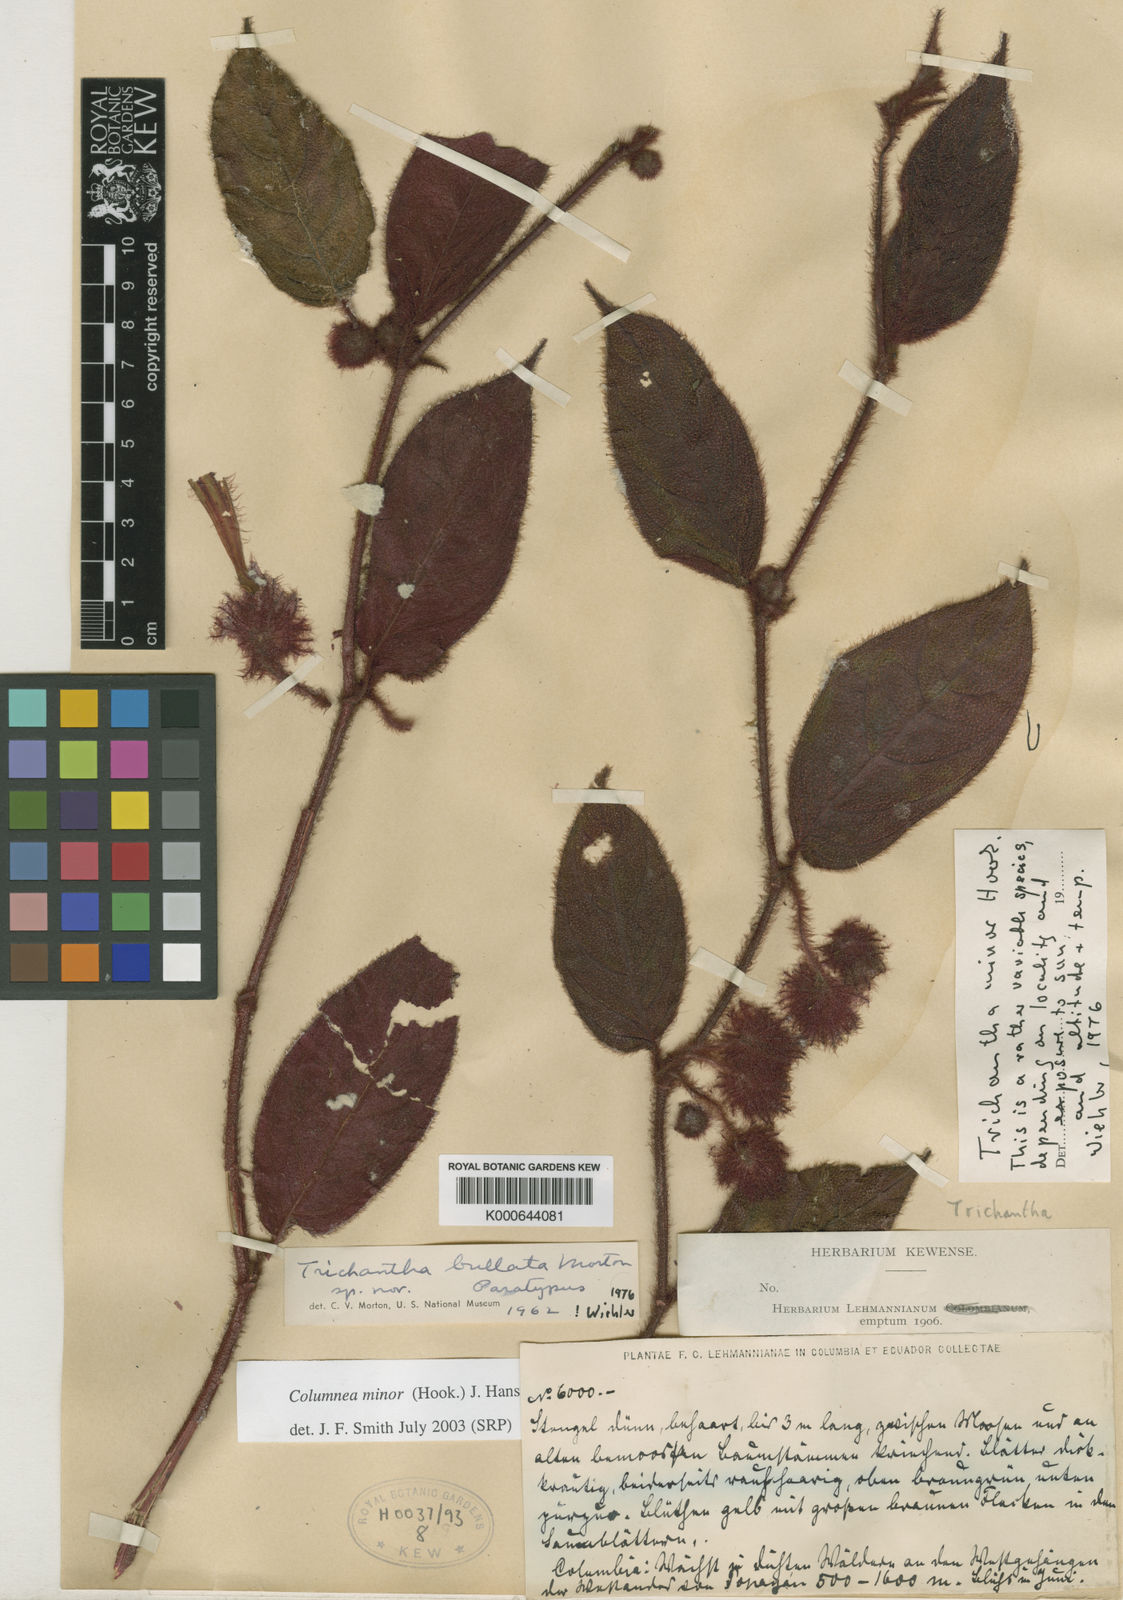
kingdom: Plantae
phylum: Tracheophyta
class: Magnoliopsida
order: Lamiales
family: Gesneriaceae
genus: Columnea
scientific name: Columnea minor
